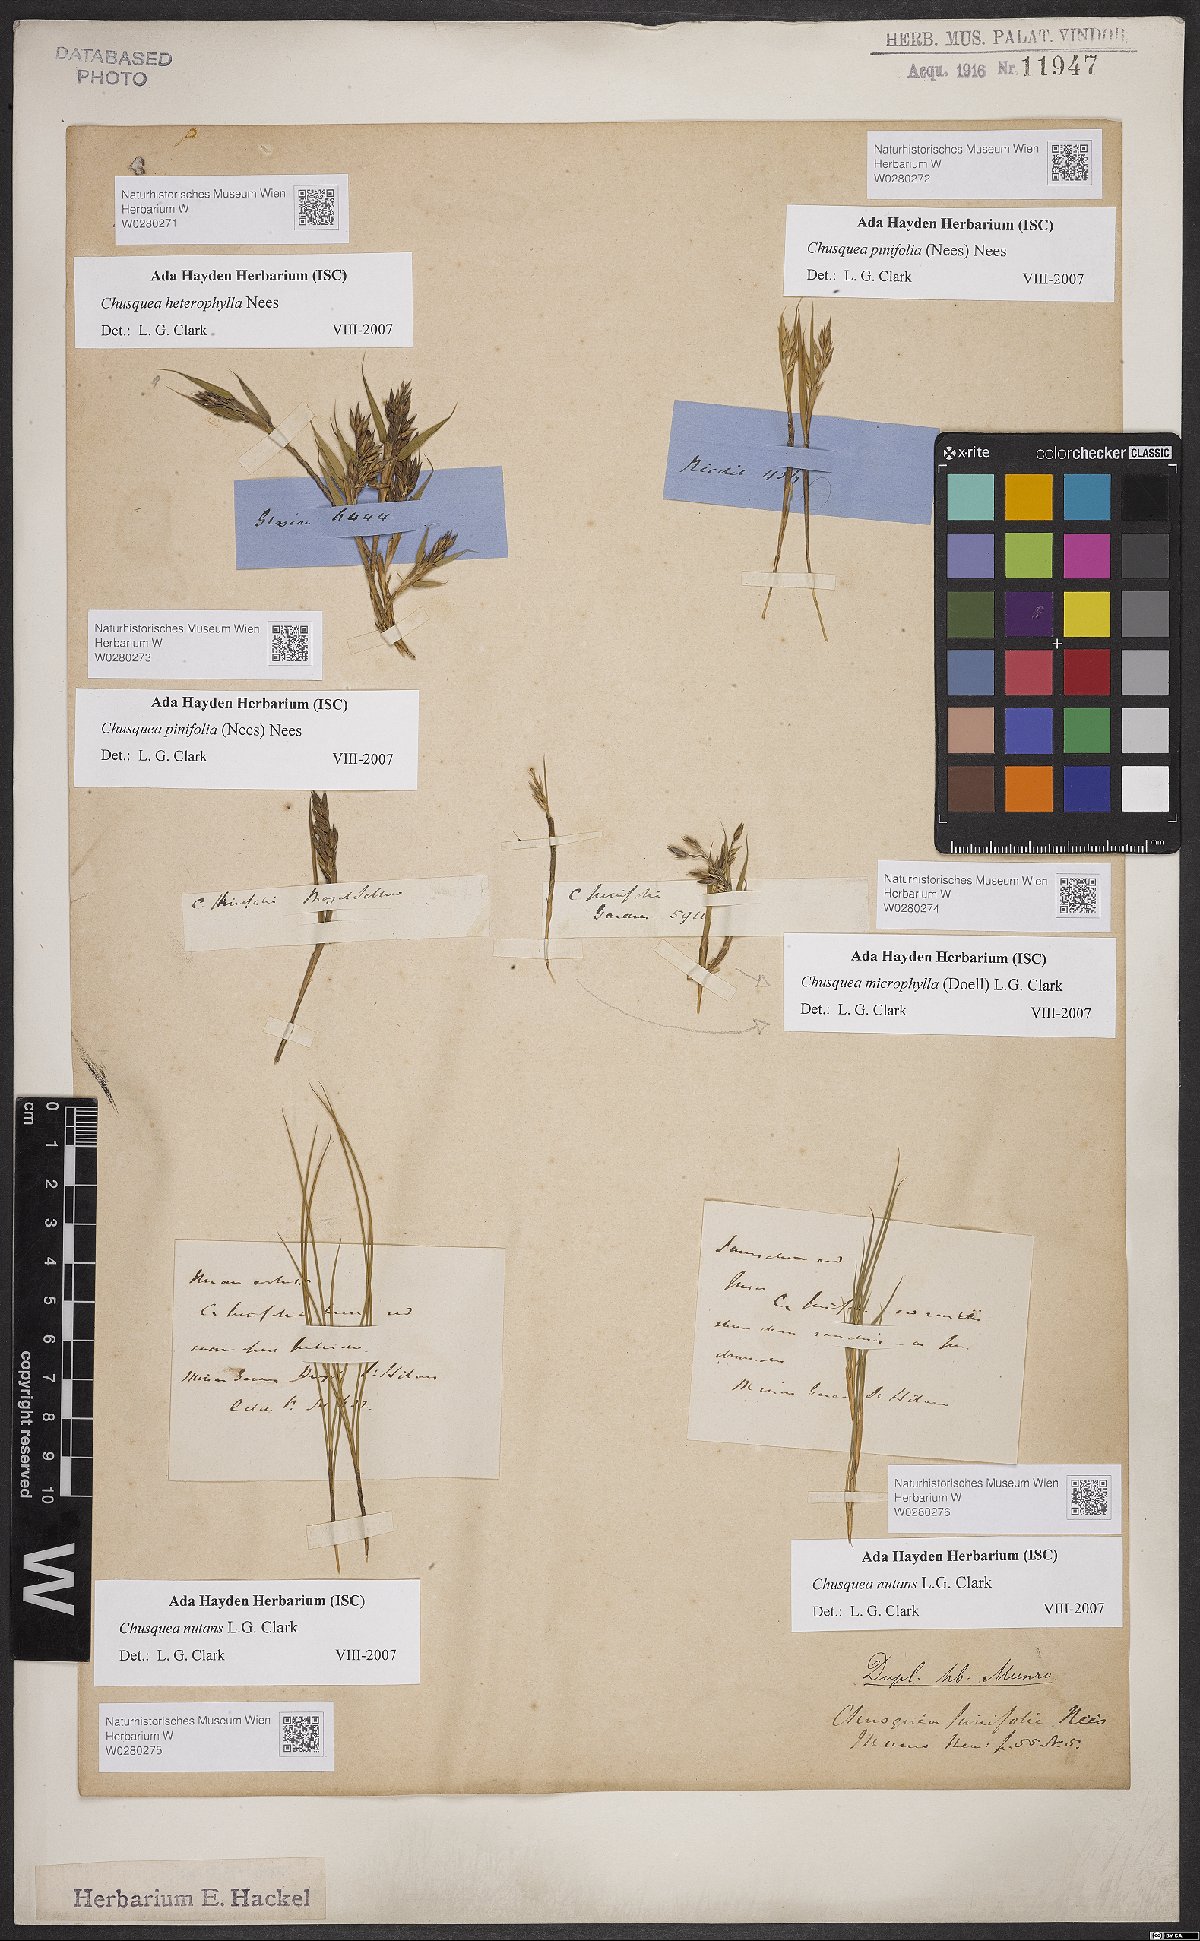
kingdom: Plantae
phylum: Tracheophyta
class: Liliopsida
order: Poales
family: Poaceae
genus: Chusquea
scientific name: Chusquea nutans
